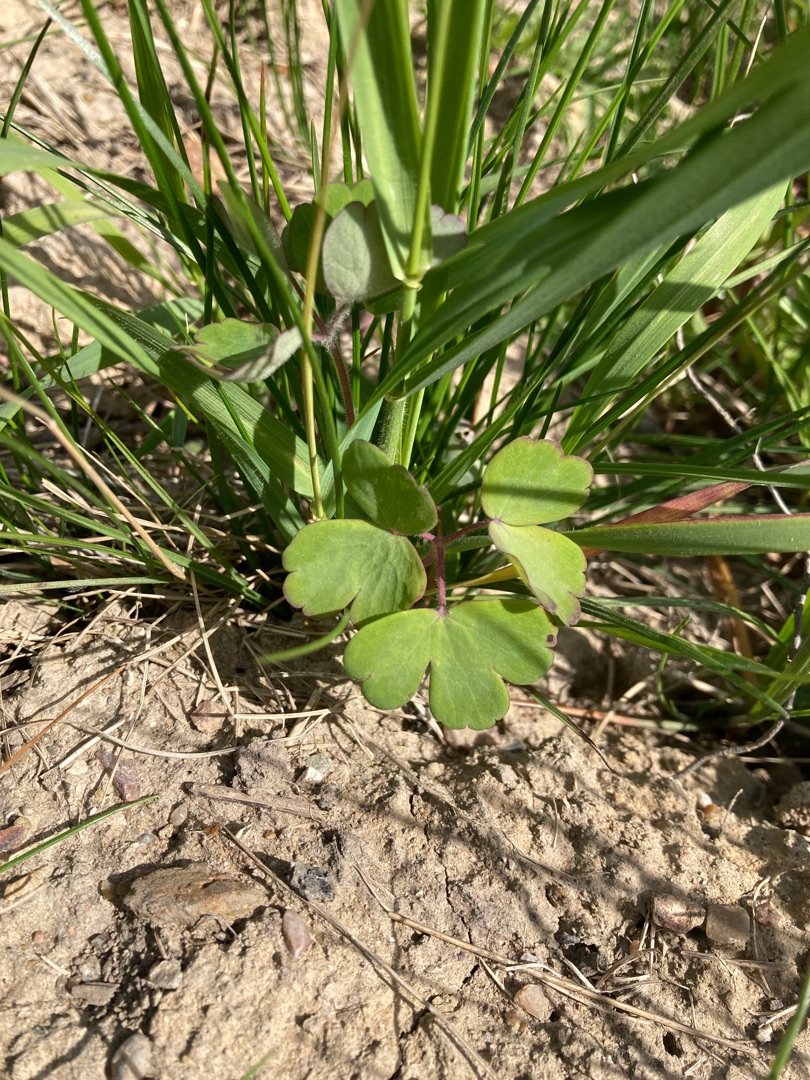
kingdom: Plantae
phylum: Tracheophyta
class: Magnoliopsida
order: Ranunculales
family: Ranunculaceae
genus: Aquilegia
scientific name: Aquilegia vulgaris
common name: Akeleje
